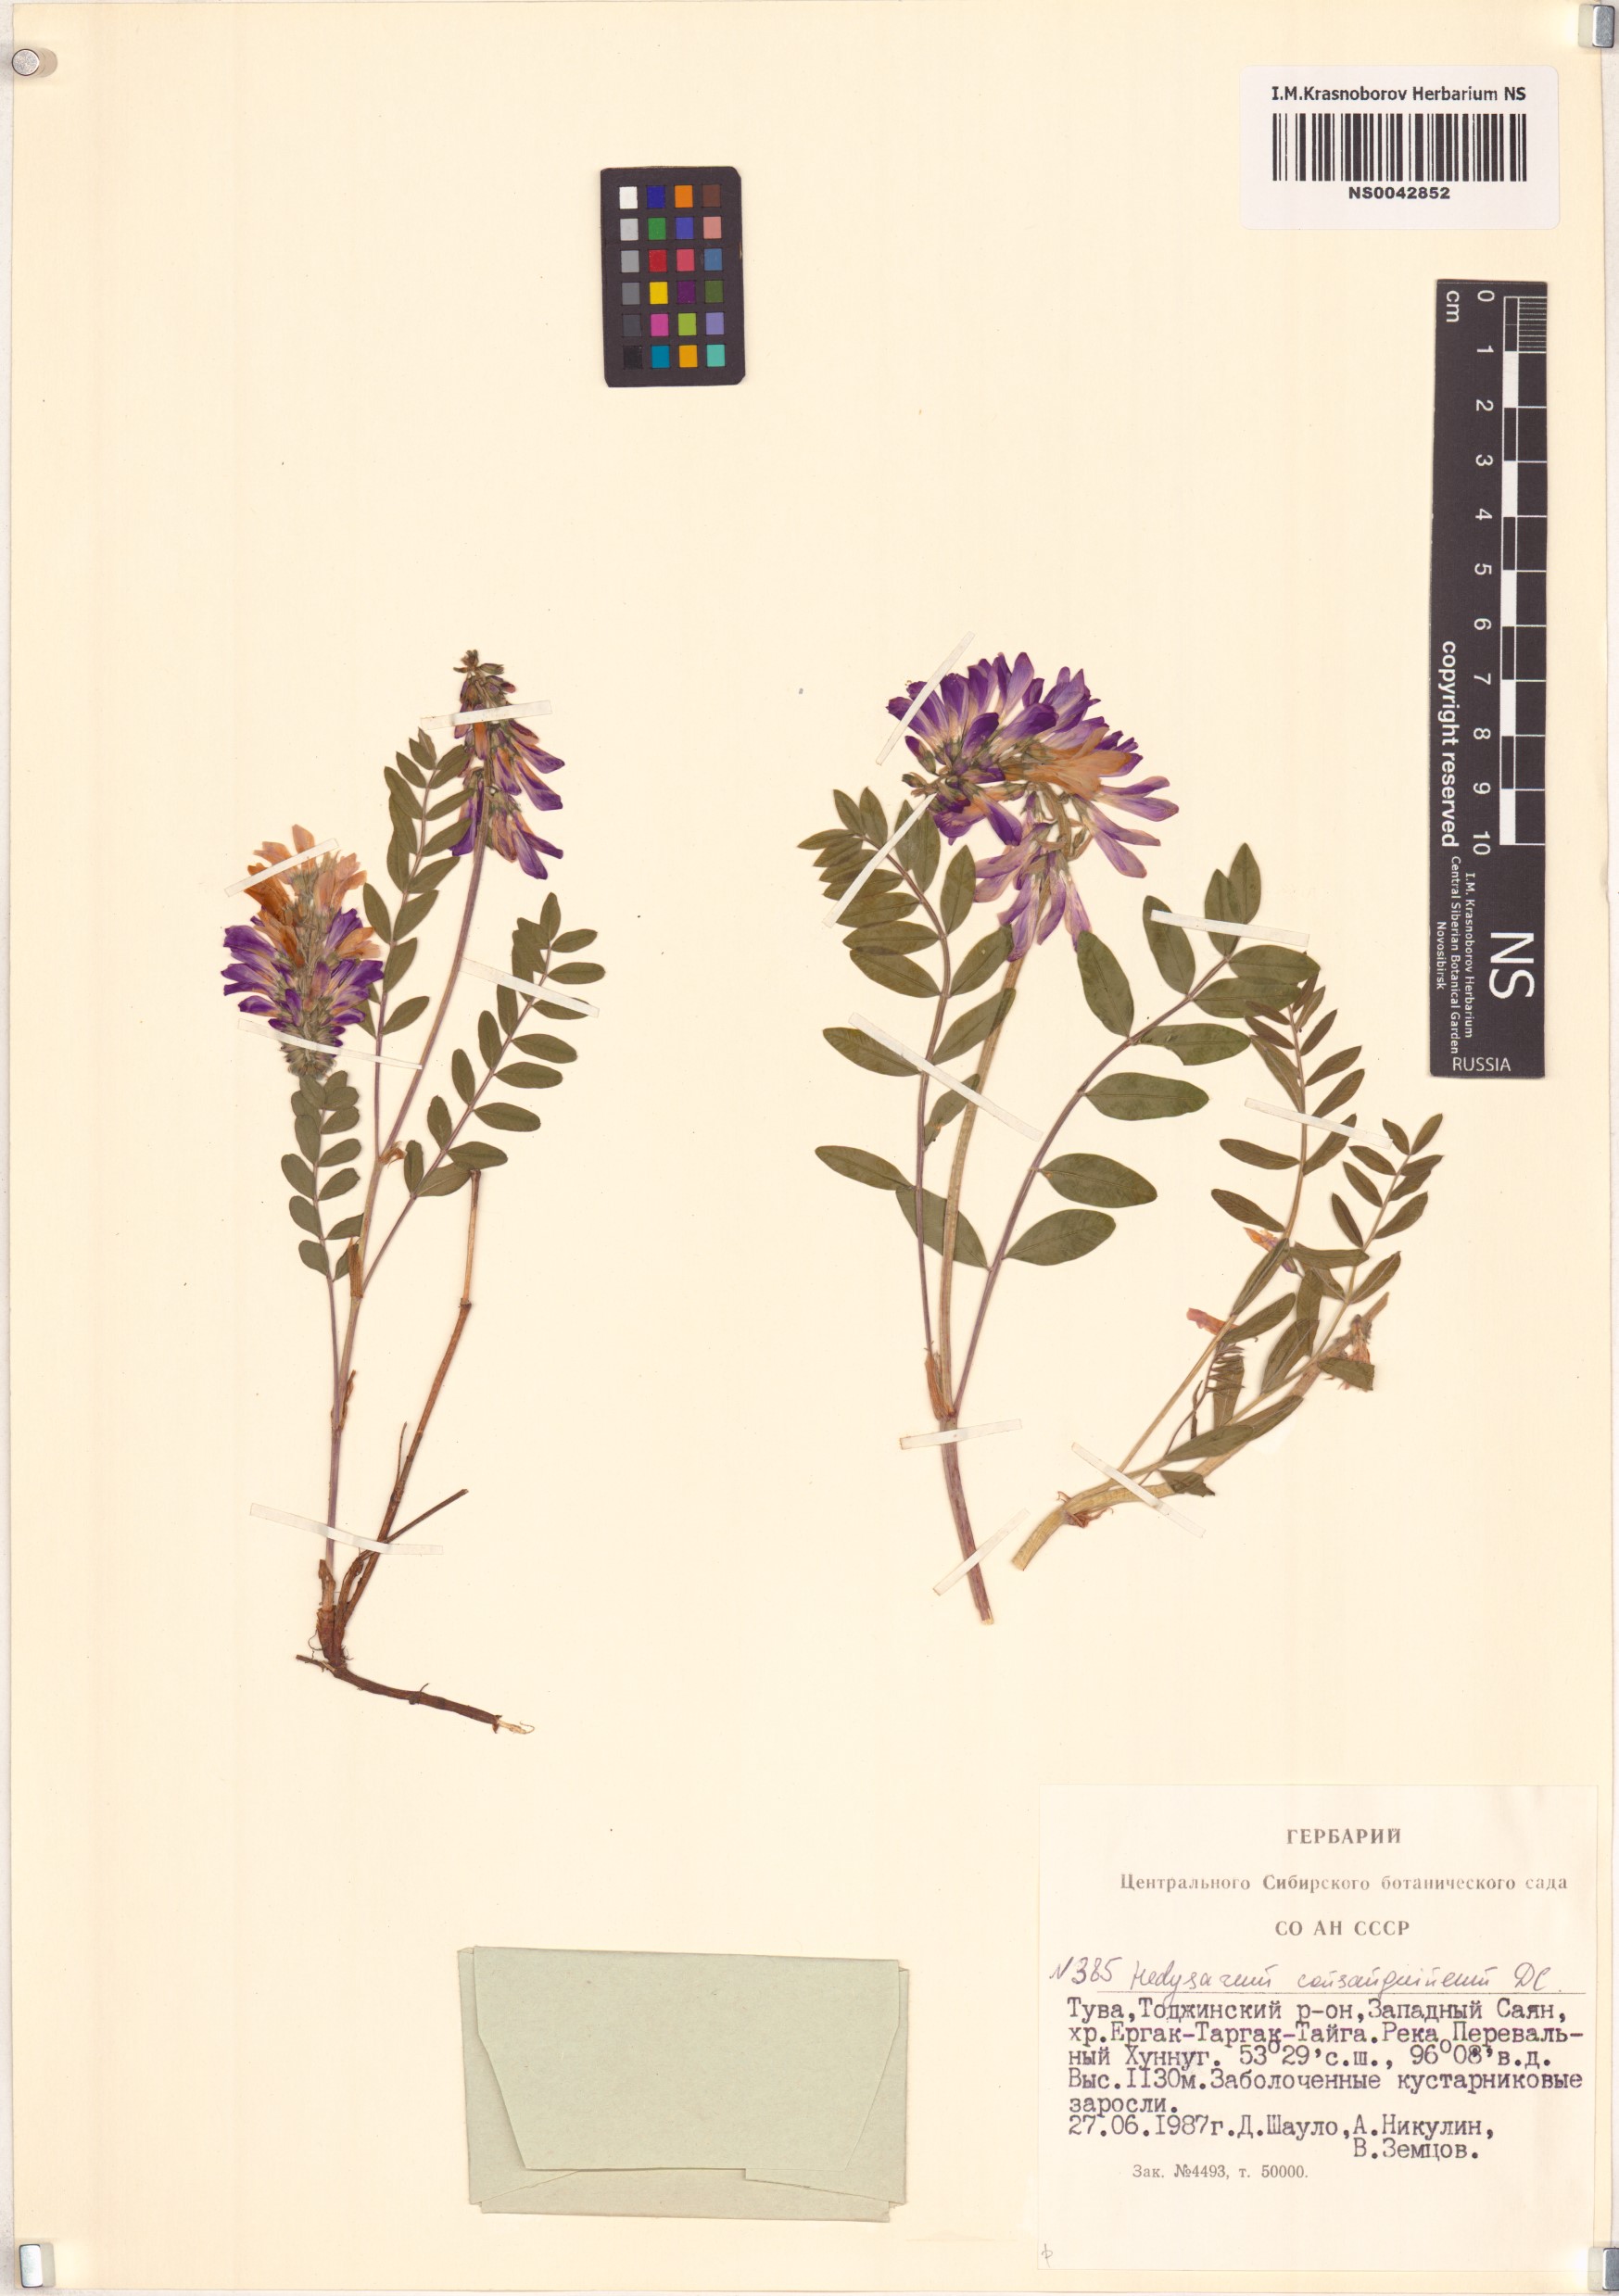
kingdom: Plantae
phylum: Tracheophyta
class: Magnoliopsida
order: Fabales
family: Fabaceae
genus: Hedysarum
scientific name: Hedysarum consanguineum
